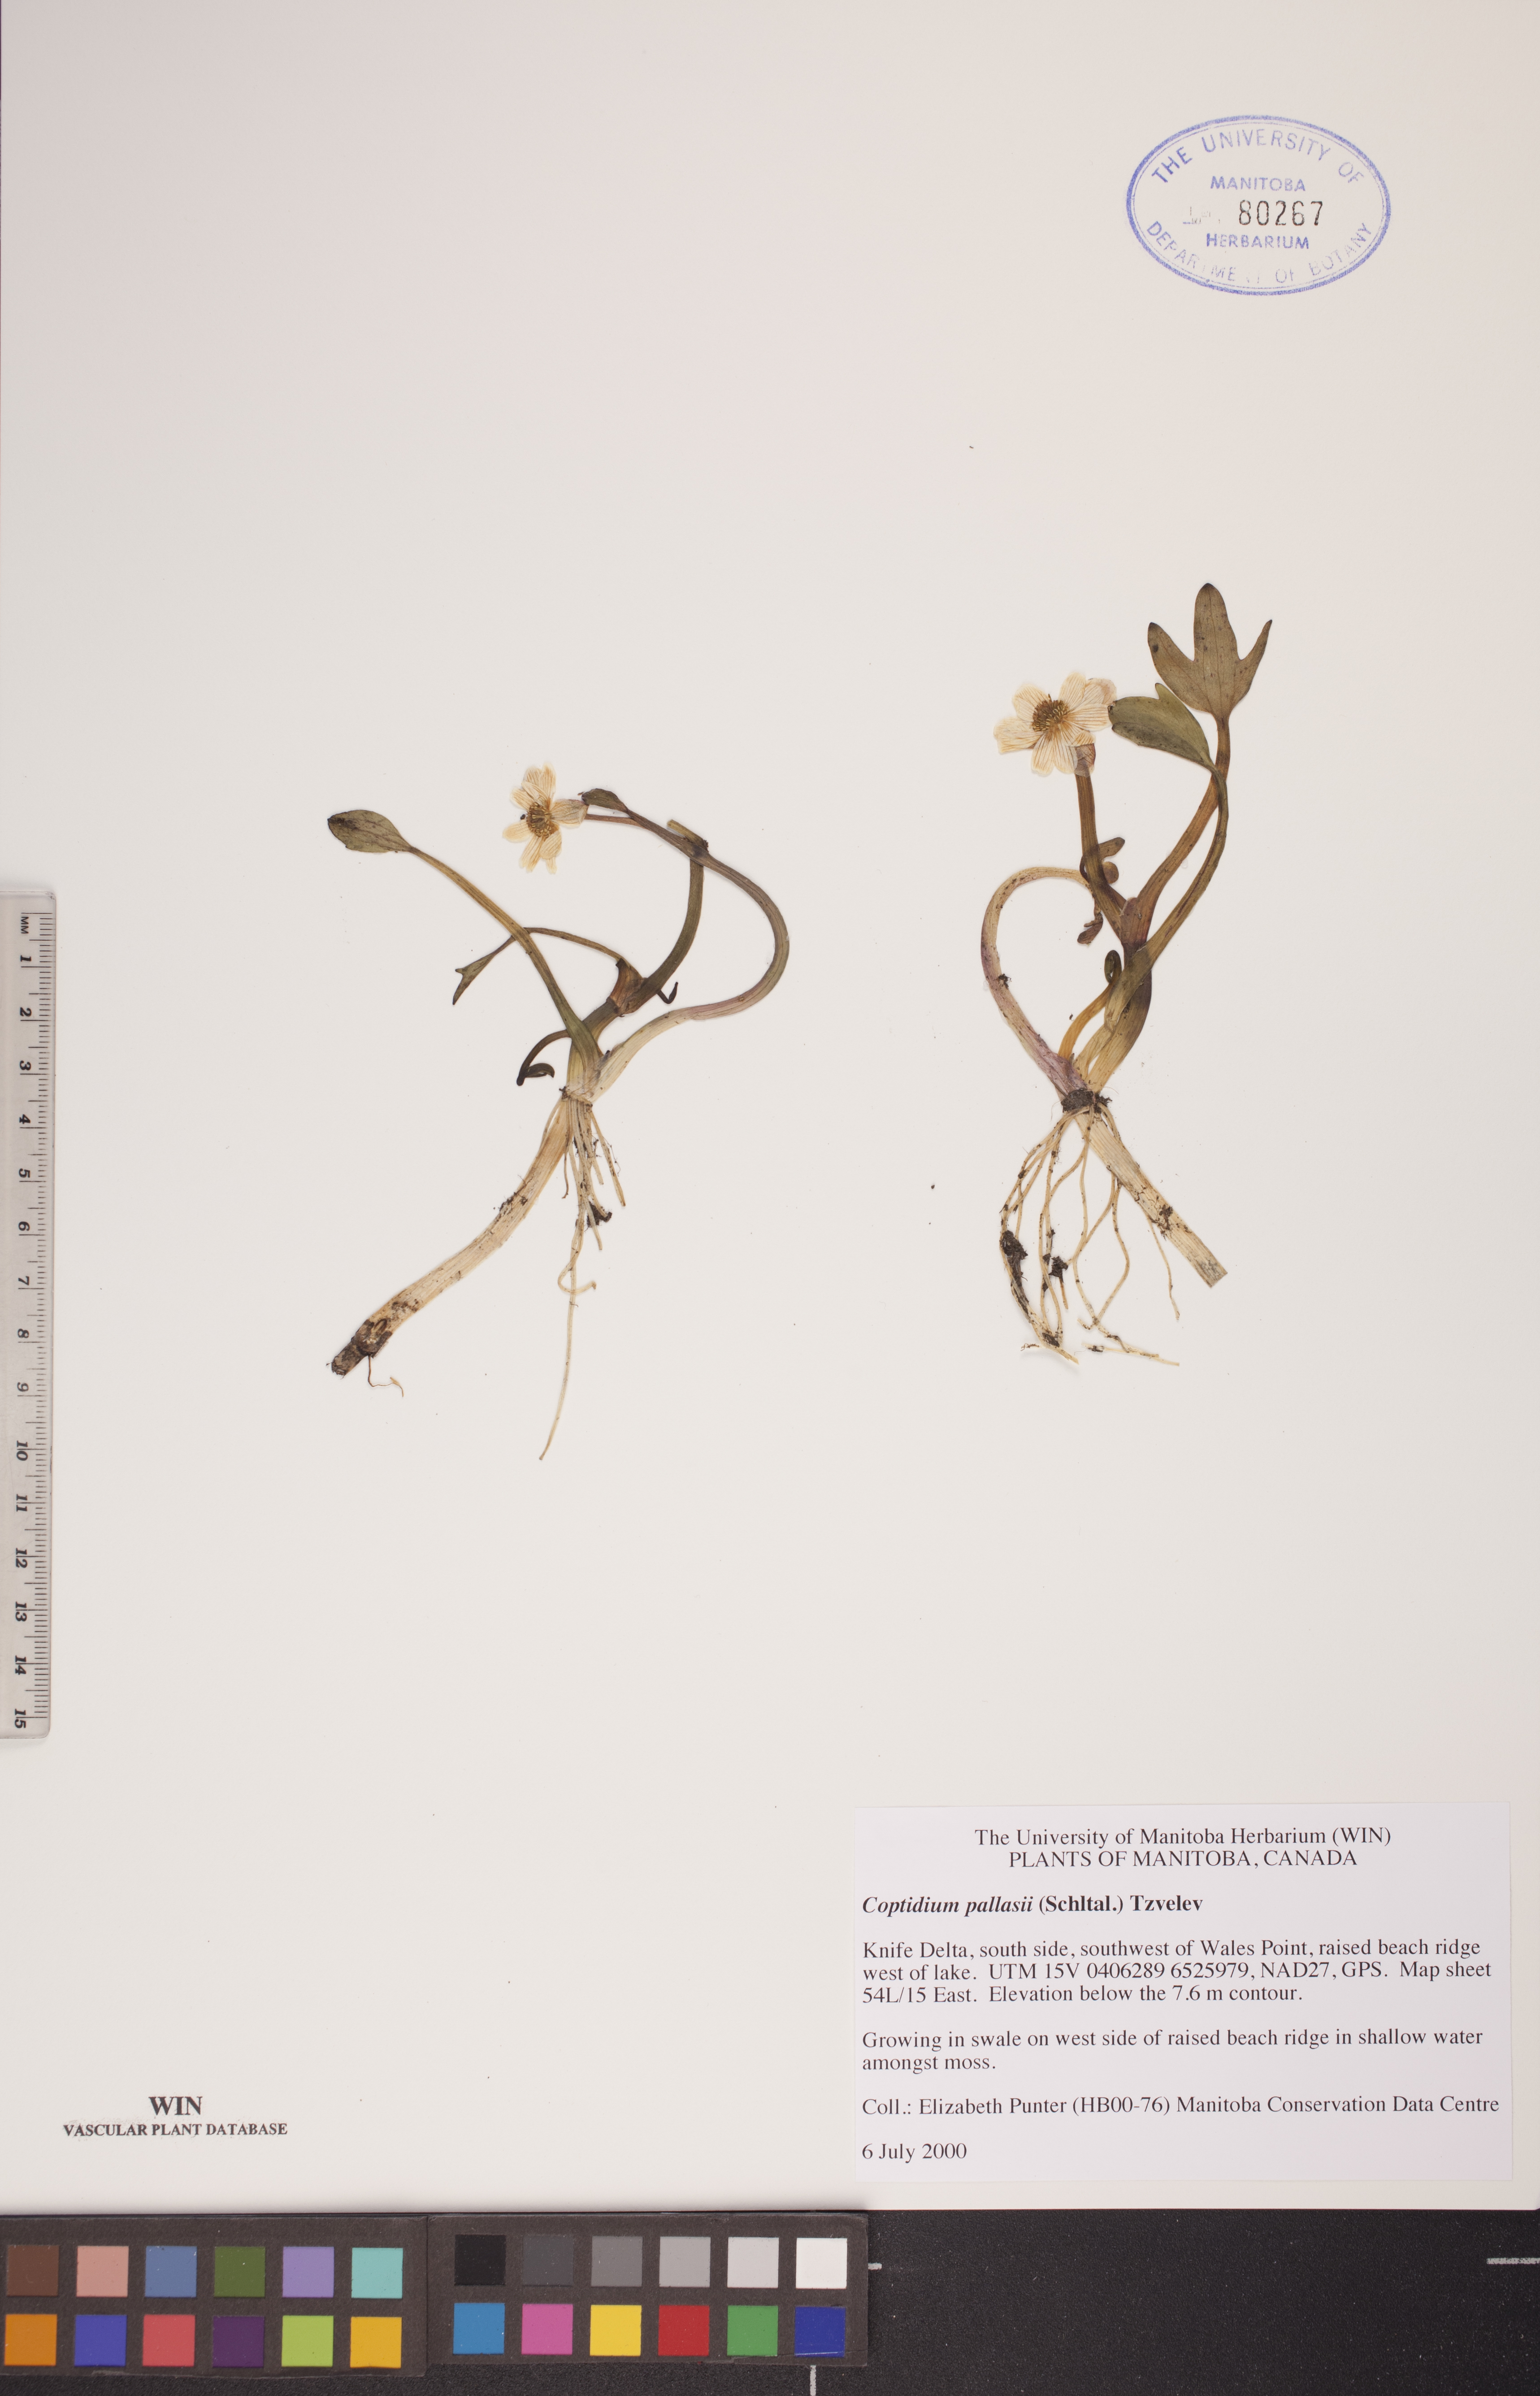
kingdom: Plantae
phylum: Tracheophyta
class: Magnoliopsida
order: Ranunculales
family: Ranunculaceae
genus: Coptidium
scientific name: Coptidium pallasii
